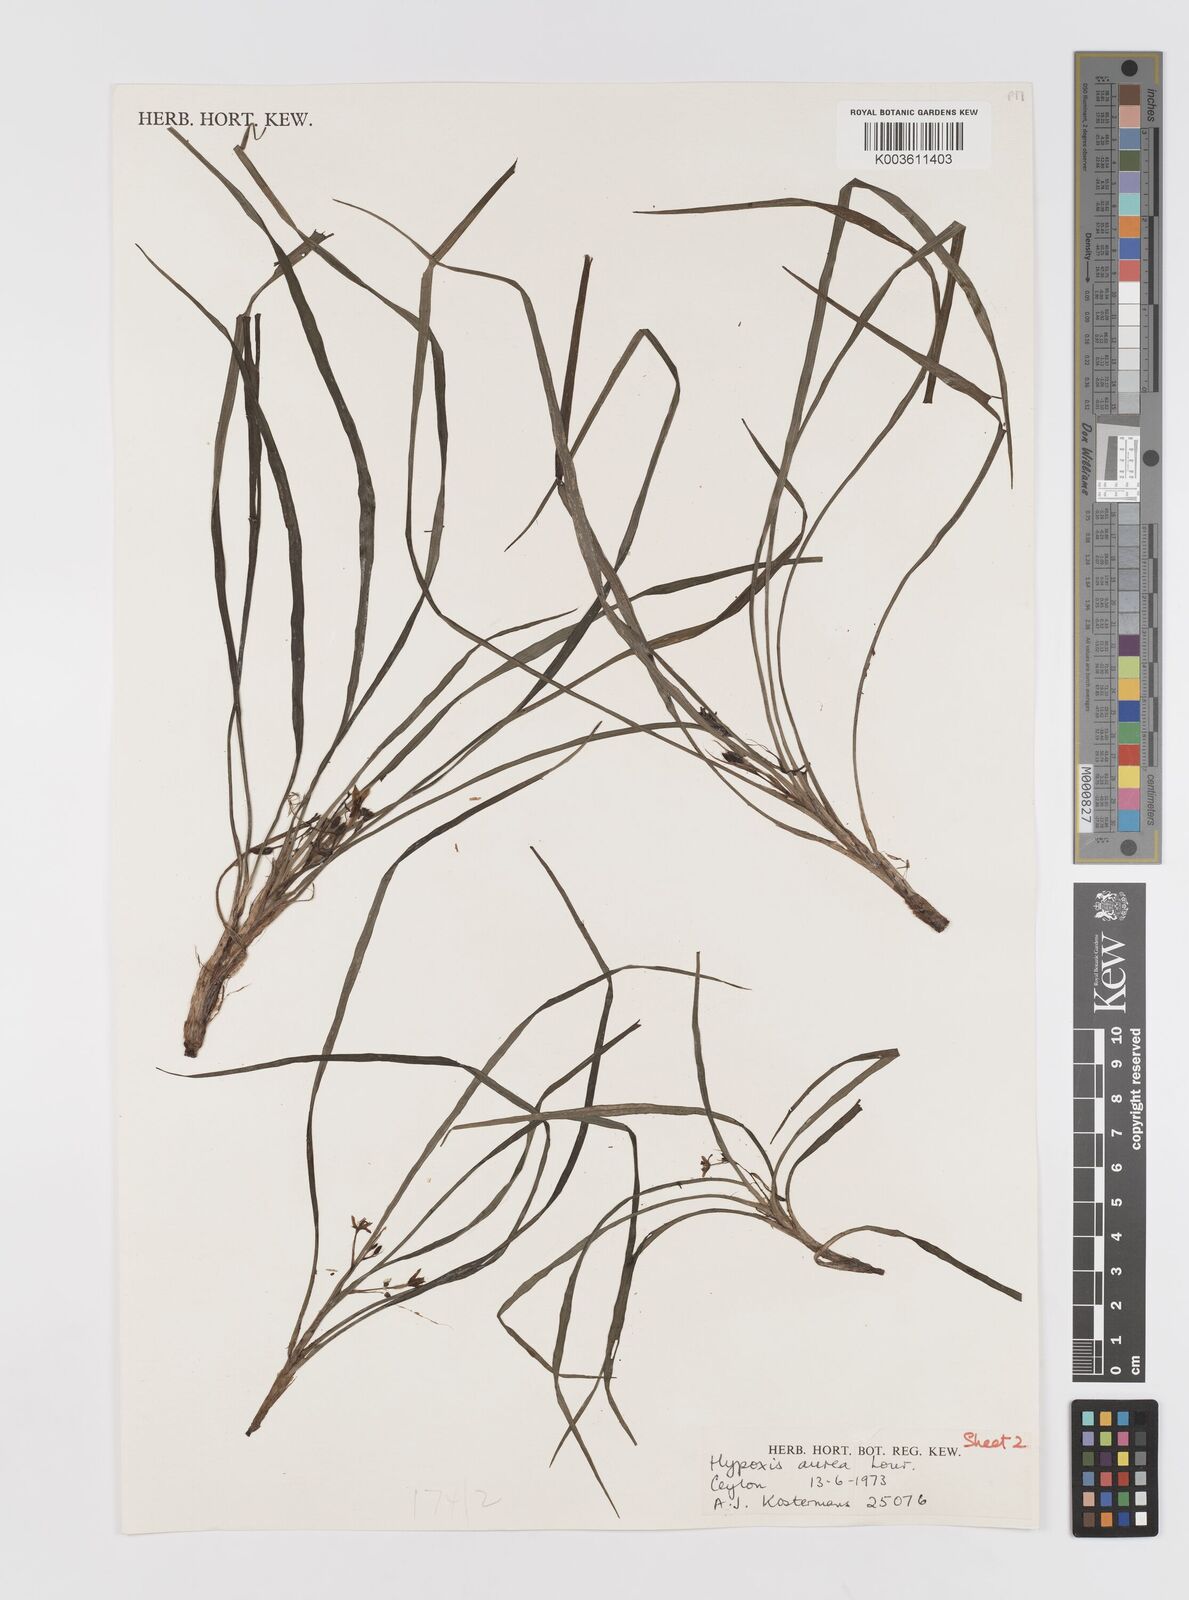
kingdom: Plantae
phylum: Tracheophyta
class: Liliopsida
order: Asparagales
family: Hypoxidaceae
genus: Hypoxis
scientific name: Hypoxis aurea
